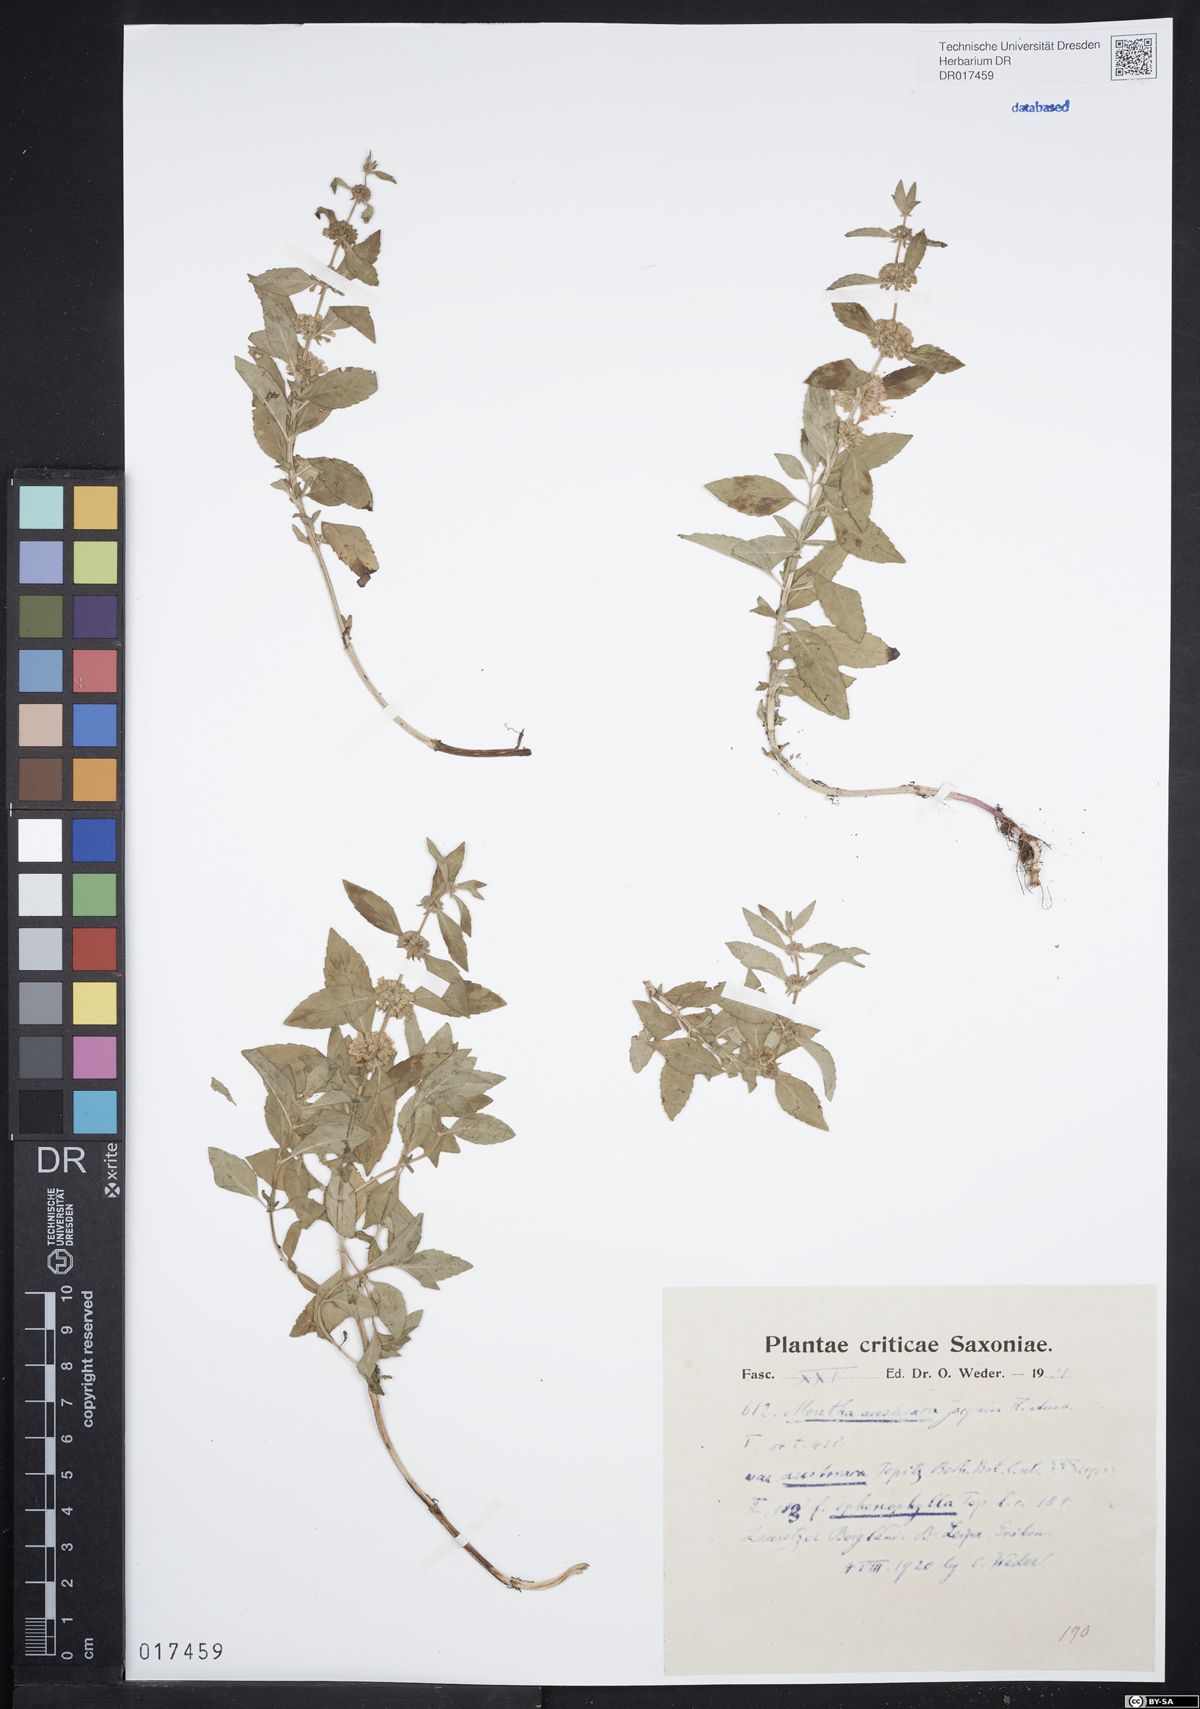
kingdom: Plantae
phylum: Tracheophyta
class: Magnoliopsida
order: Lamiales
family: Lamiaceae
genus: Mentha
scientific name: Mentha arvensis
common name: Corn mint
